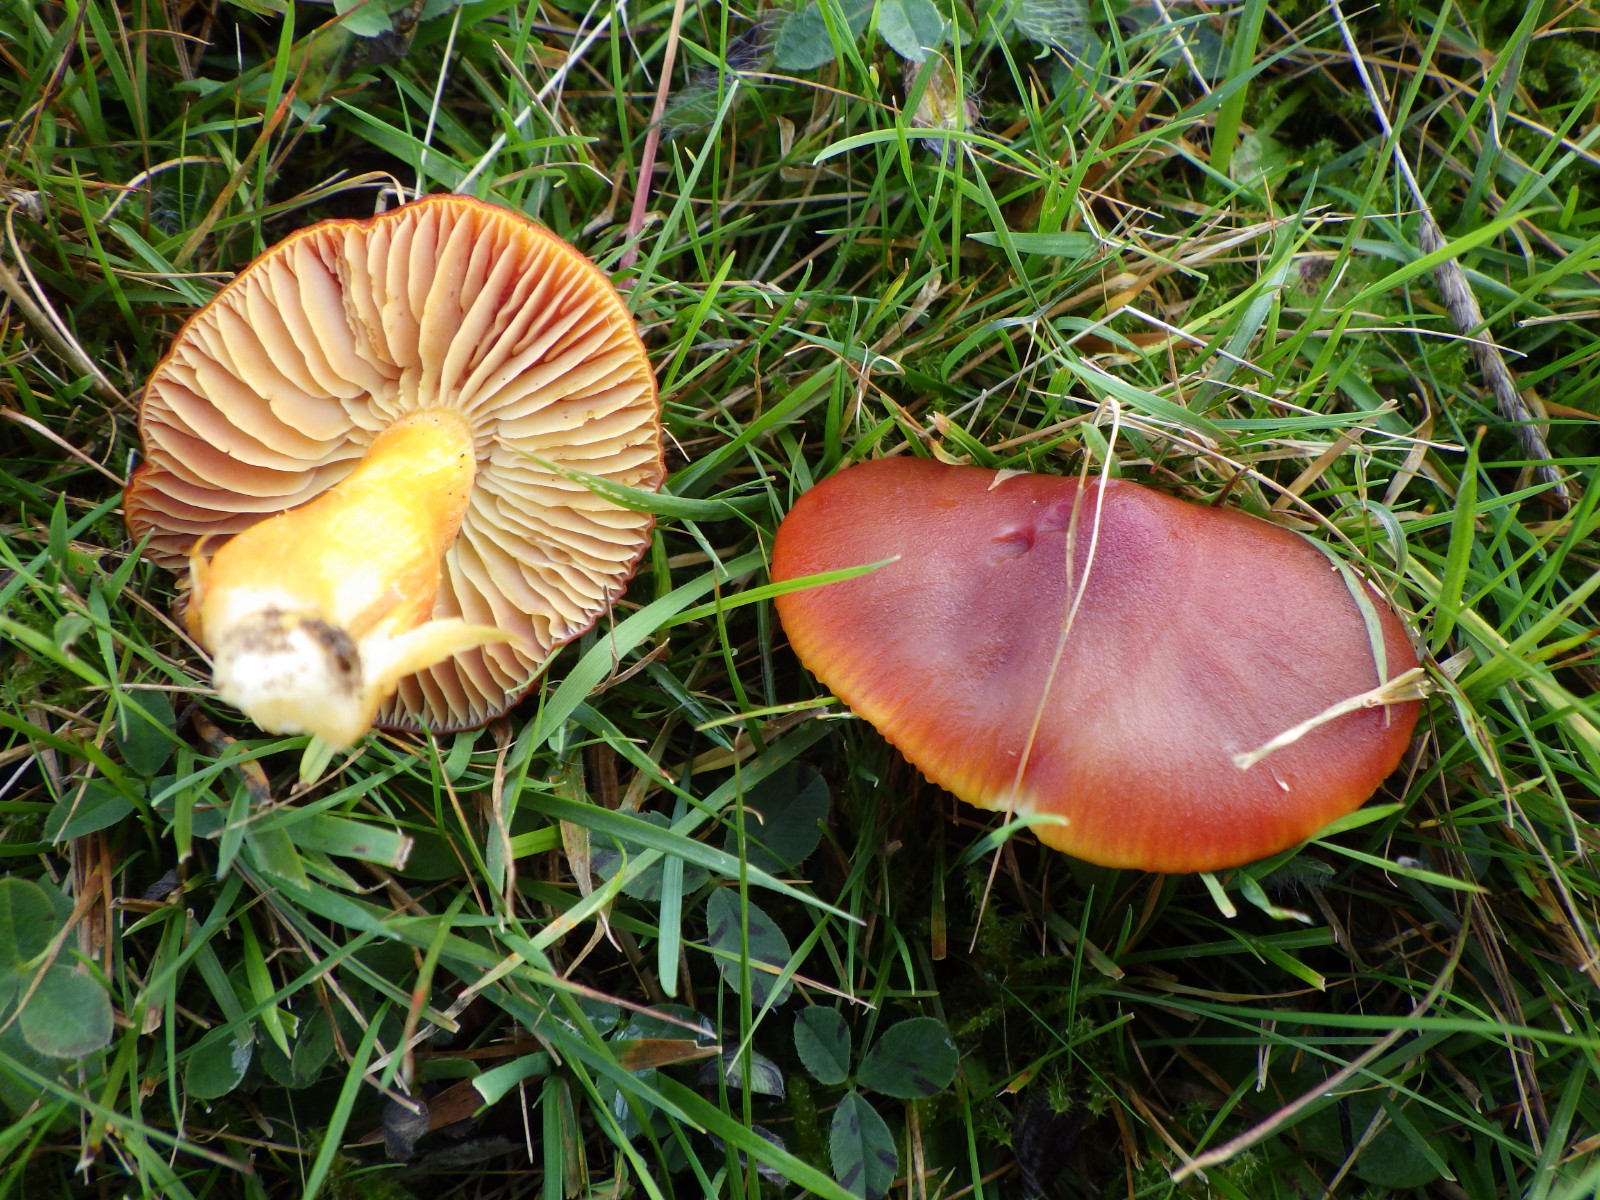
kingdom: Fungi
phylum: Basidiomycota
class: Agaricomycetes
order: Agaricales
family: Hygrophoraceae
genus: Hygrocybe
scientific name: Hygrocybe punicea
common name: skarlagen-vokshat
